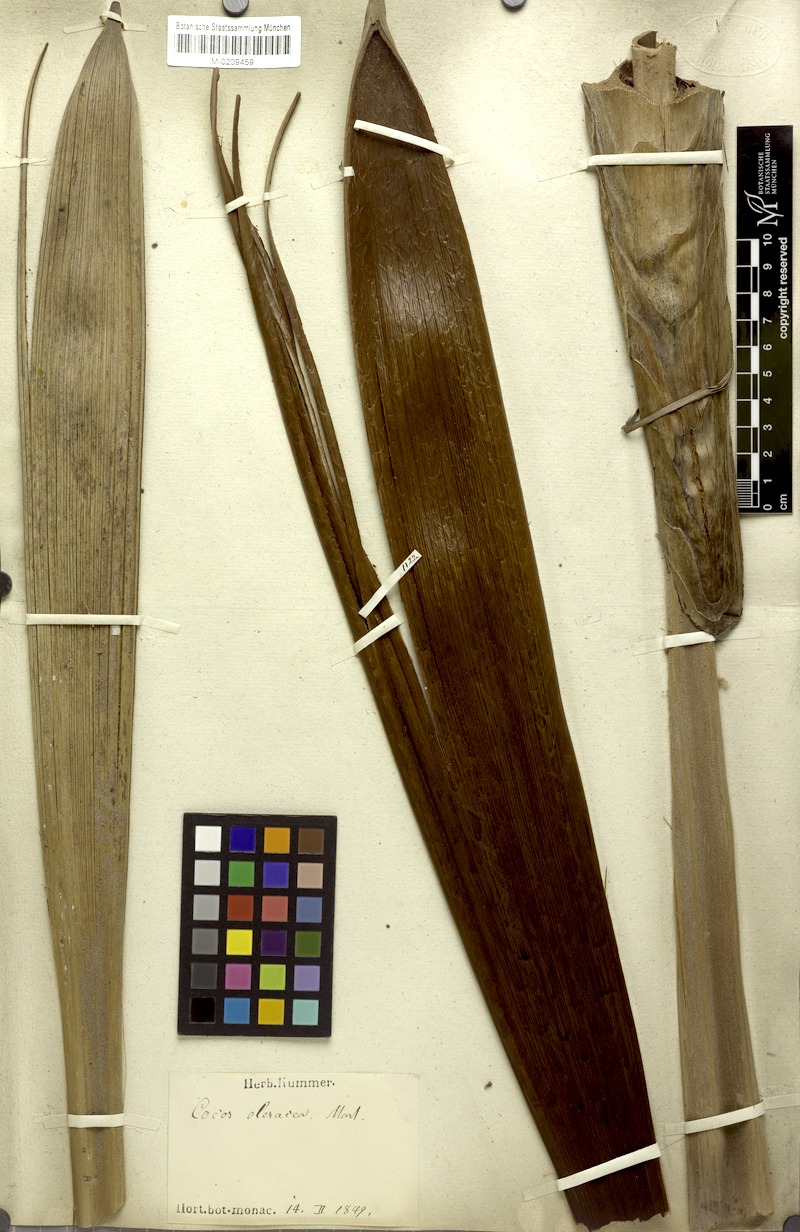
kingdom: Plantae
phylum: Tracheophyta
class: Liliopsida
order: Arecales
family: Arecaceae
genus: Syagrus
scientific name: Syagrus oleracea
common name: Catole palm
